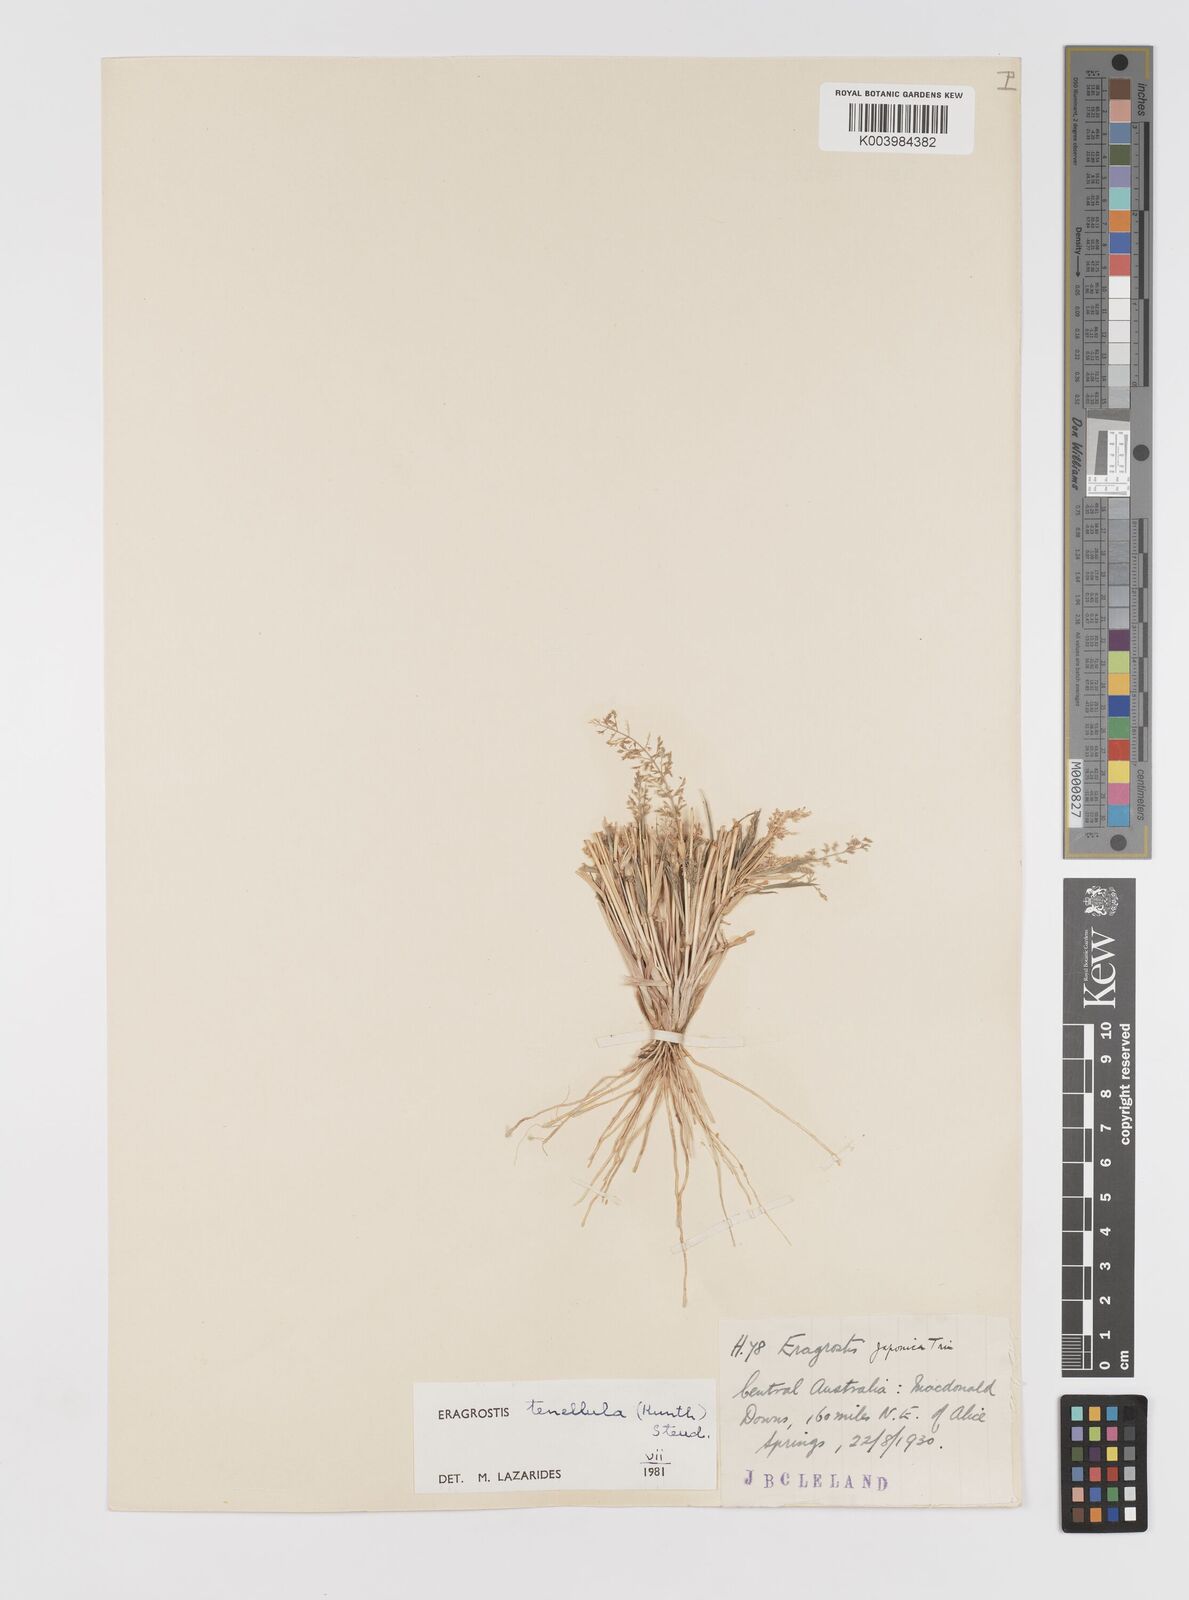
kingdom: Plantae
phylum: Tracheophyta
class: Liliopsida
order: Poales
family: Poaceae
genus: Eragrostis
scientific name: Eragrostis tenellula
